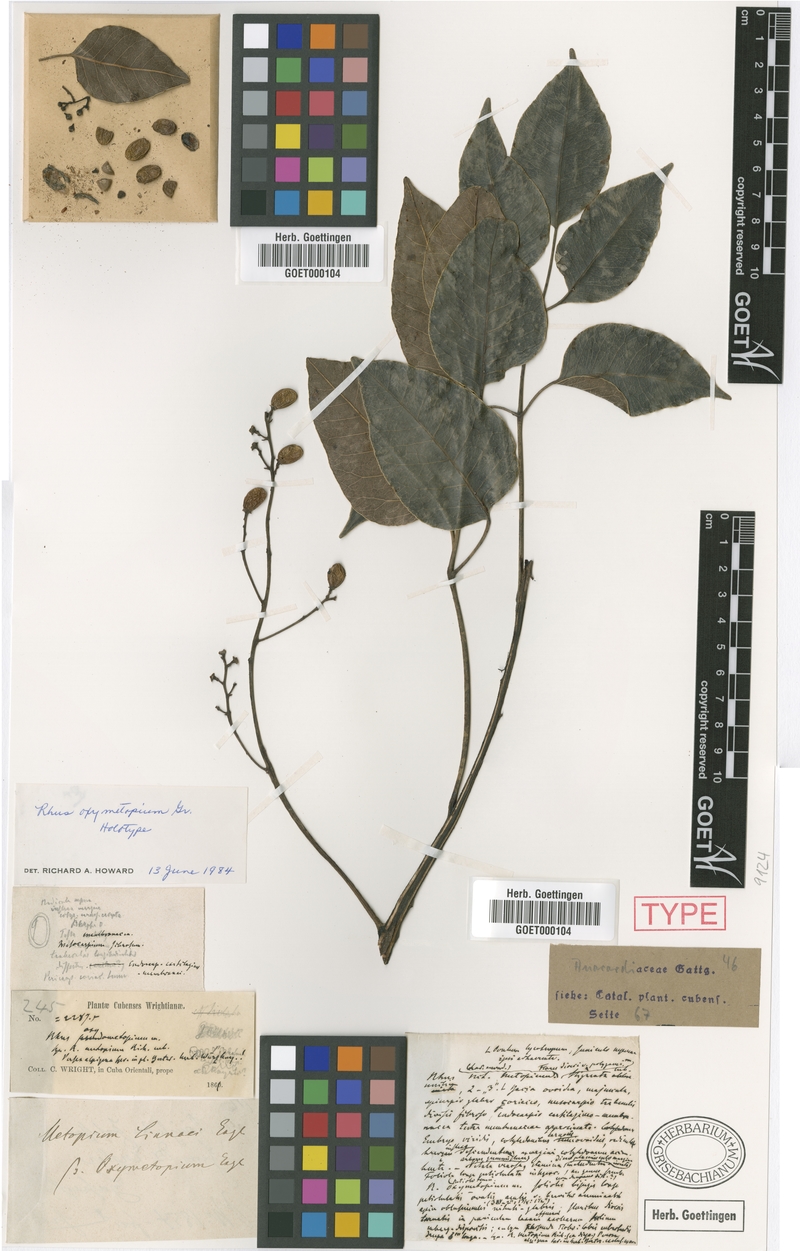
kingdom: Plantae
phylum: Tracheophyta
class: Magnoliopsida
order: Sapindales
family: Anacardiaceae
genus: Metopium
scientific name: Metopium toxiferum
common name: Florida poisontree
